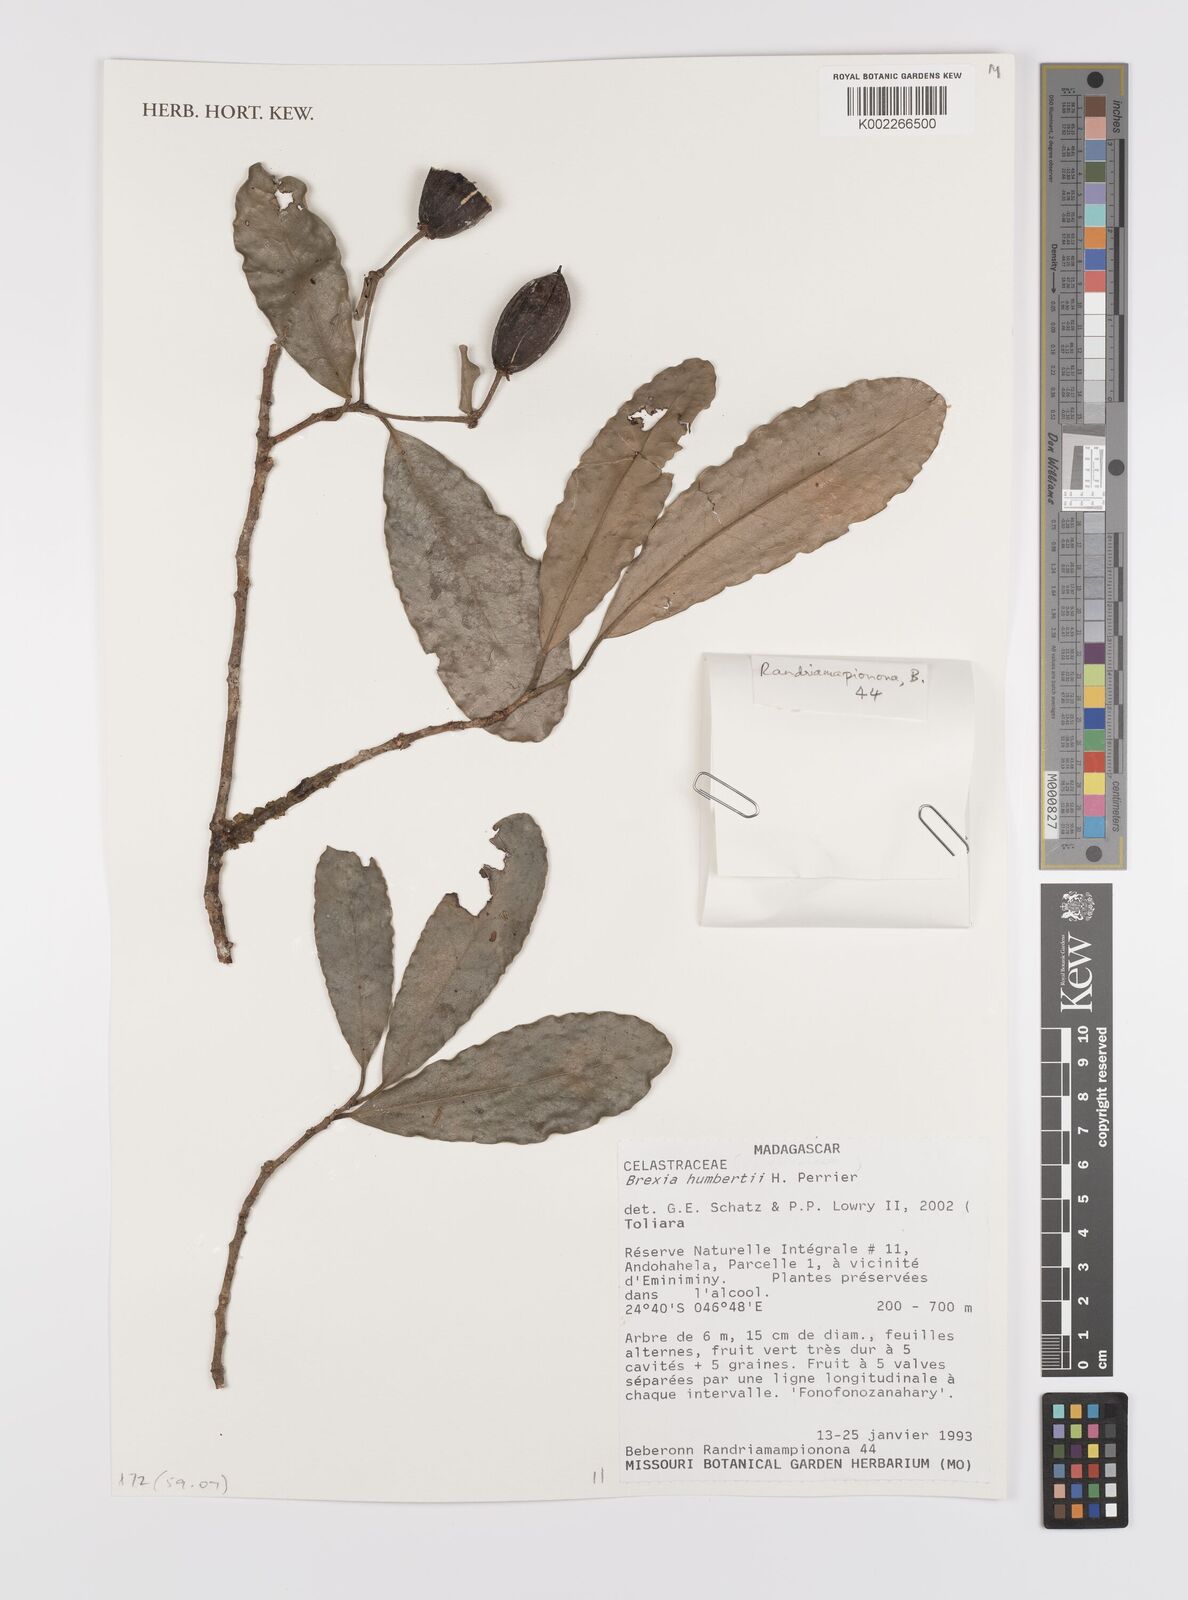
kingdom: Plantae
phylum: Tracheophyta
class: Magnoliopsida
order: Celastrales
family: Celastraceae
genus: Brexia
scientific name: Brexia humbertii
